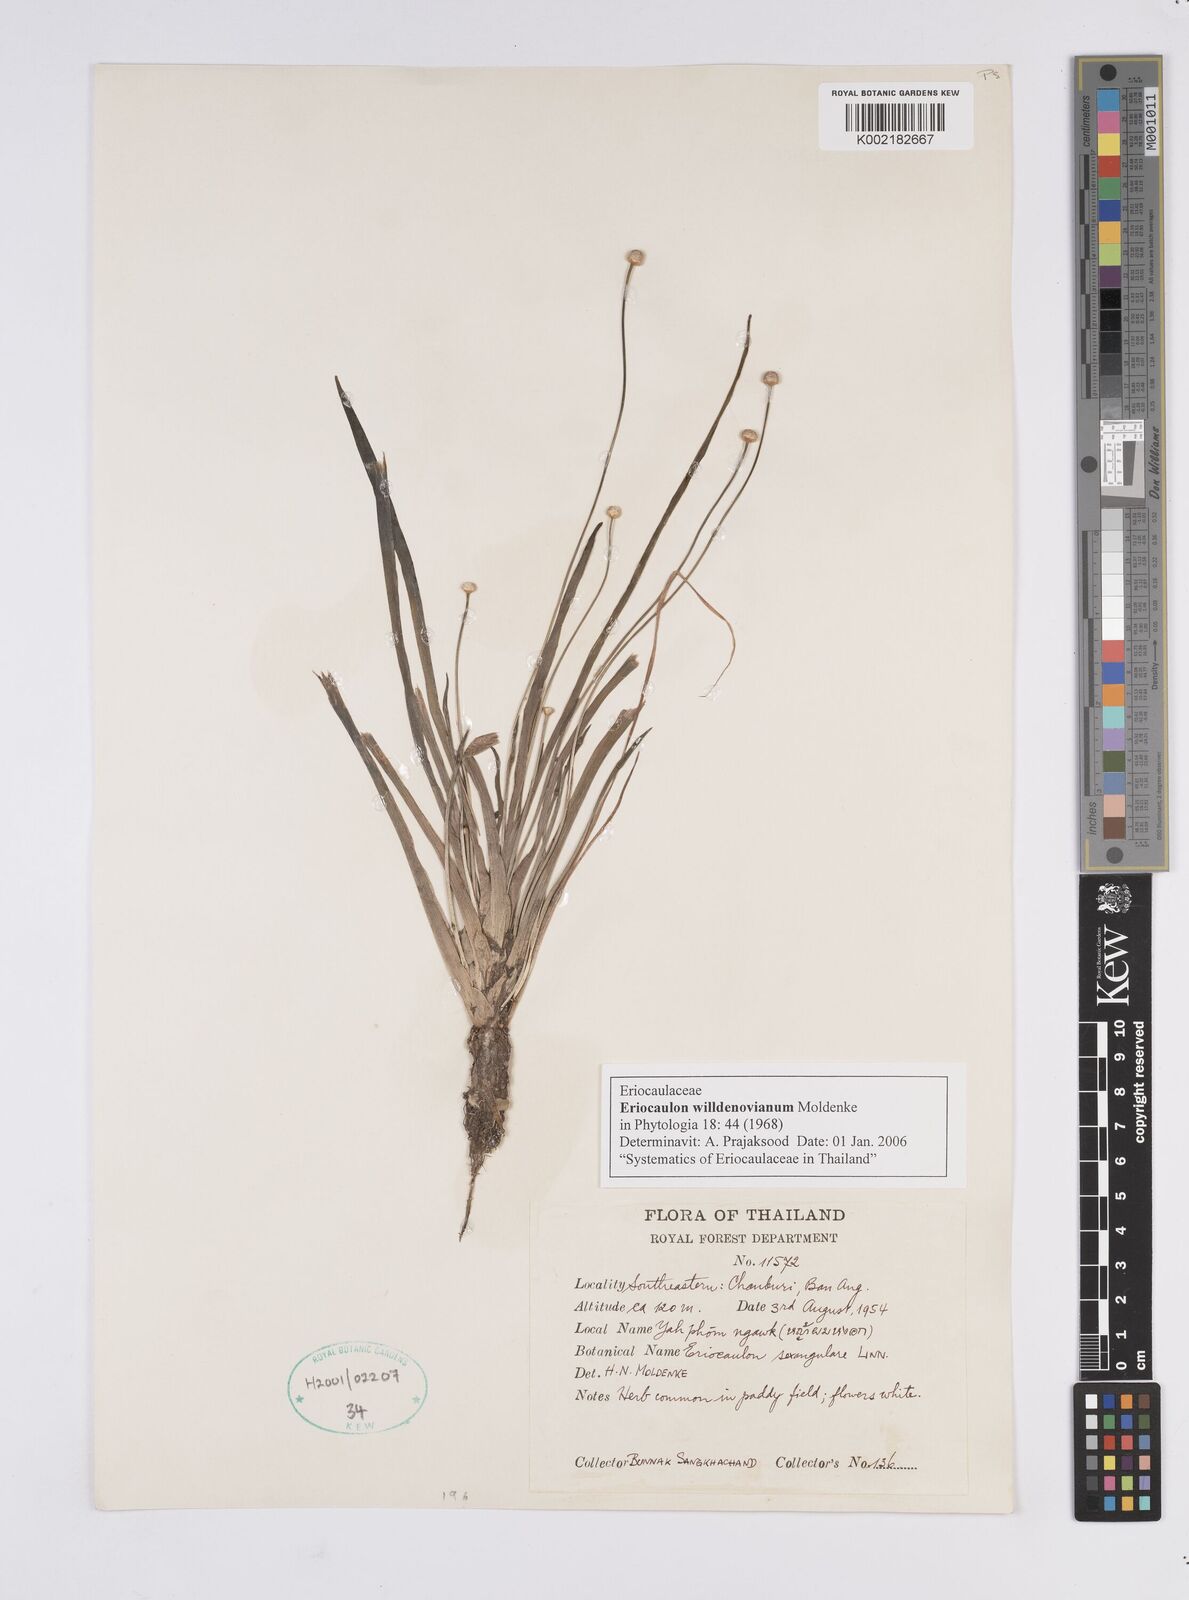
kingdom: Plantae
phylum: Tracheophyta
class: Liliopsida
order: Poales
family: Eriocaulaceae
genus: Eriocaulon
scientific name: Eriocaulon willdenovianum
